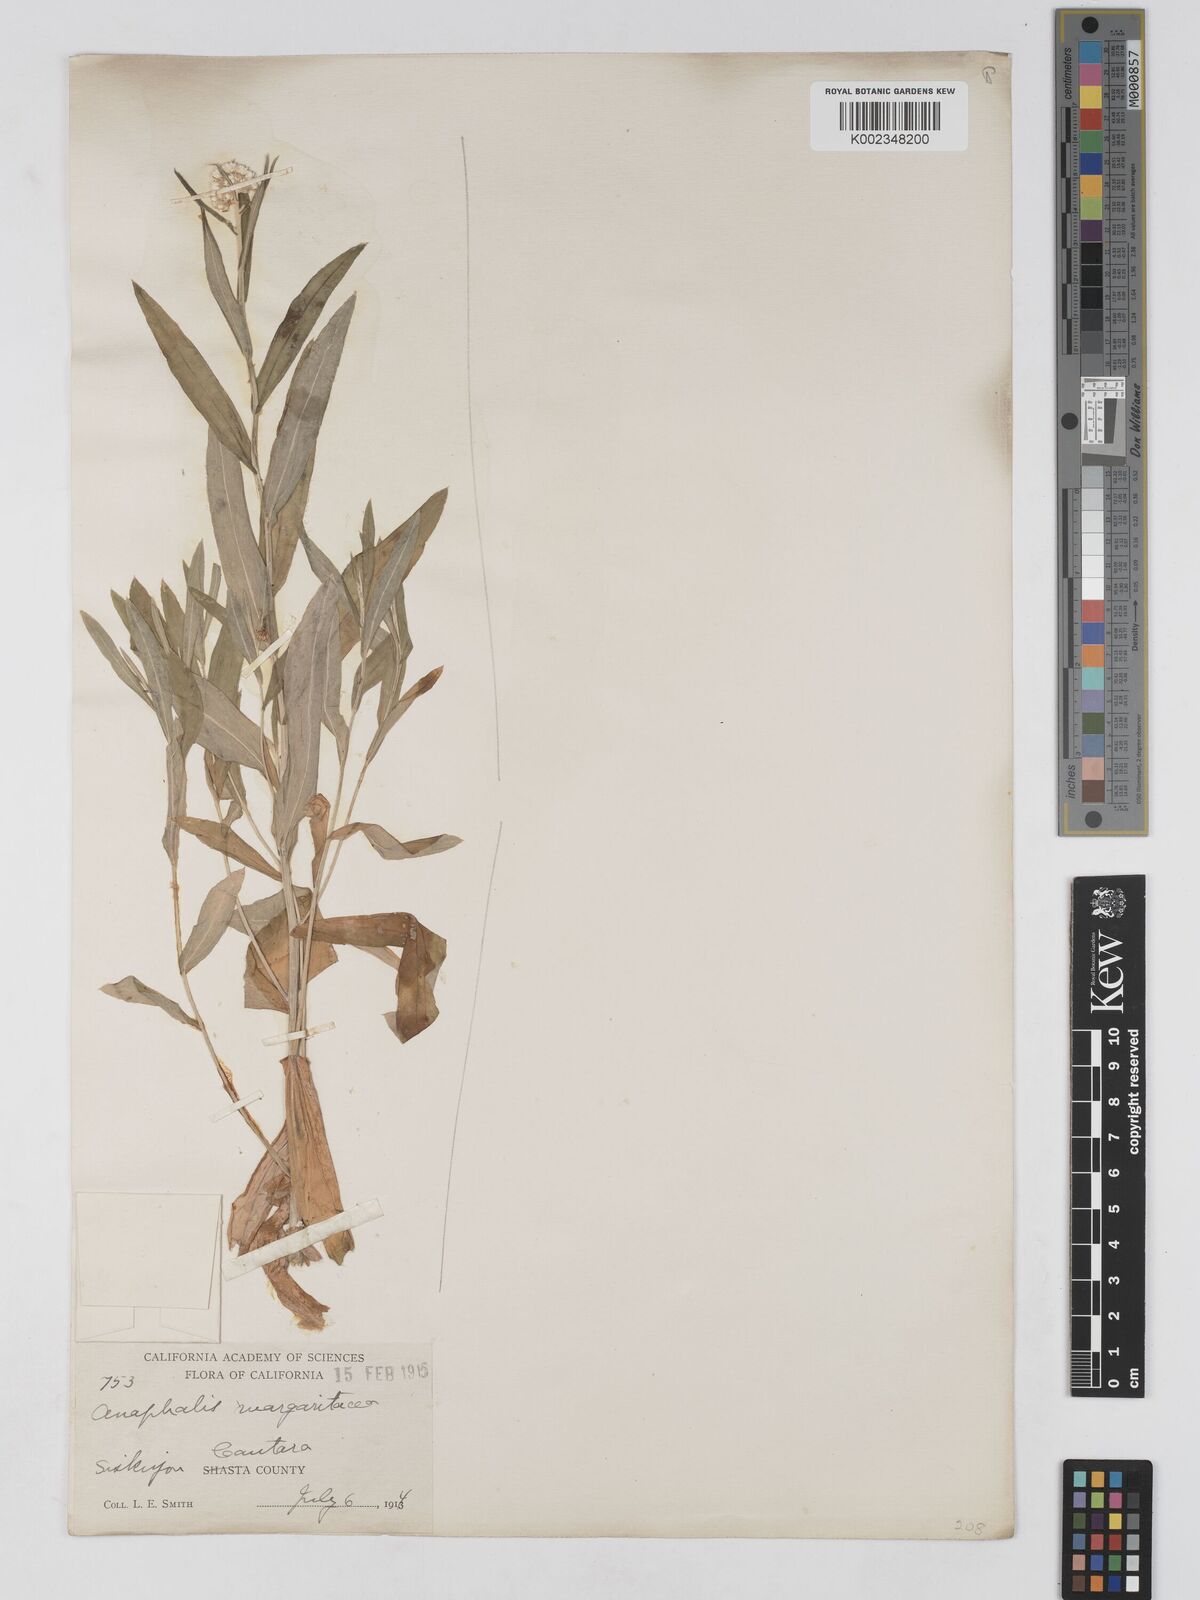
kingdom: Plantae
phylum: Tracheophyta
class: Magnoliopsida
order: Asterales
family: Asteraceae
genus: Anaphalis
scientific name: Anaphalis
